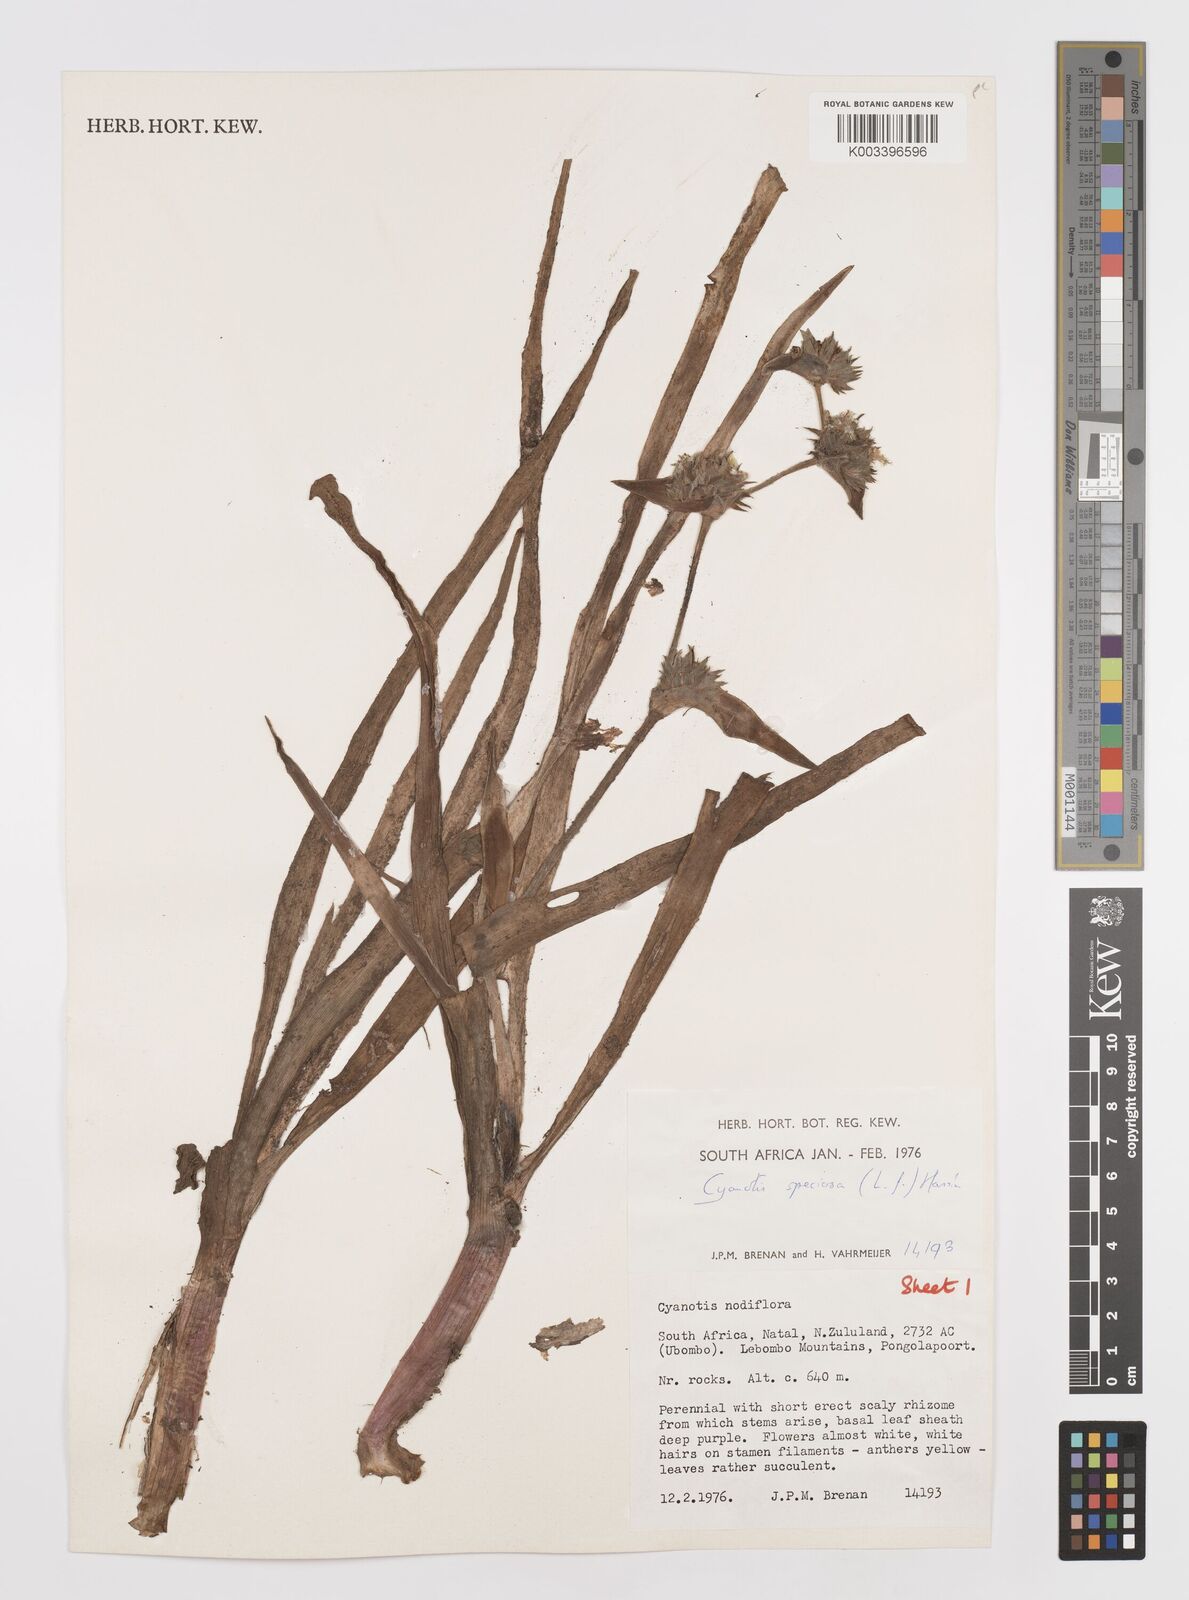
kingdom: Plantae
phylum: Tracheophyta
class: Liliopsida
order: Commelinales
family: Commelinaceae
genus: Cyanotis
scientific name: Cyanotis speciosa
